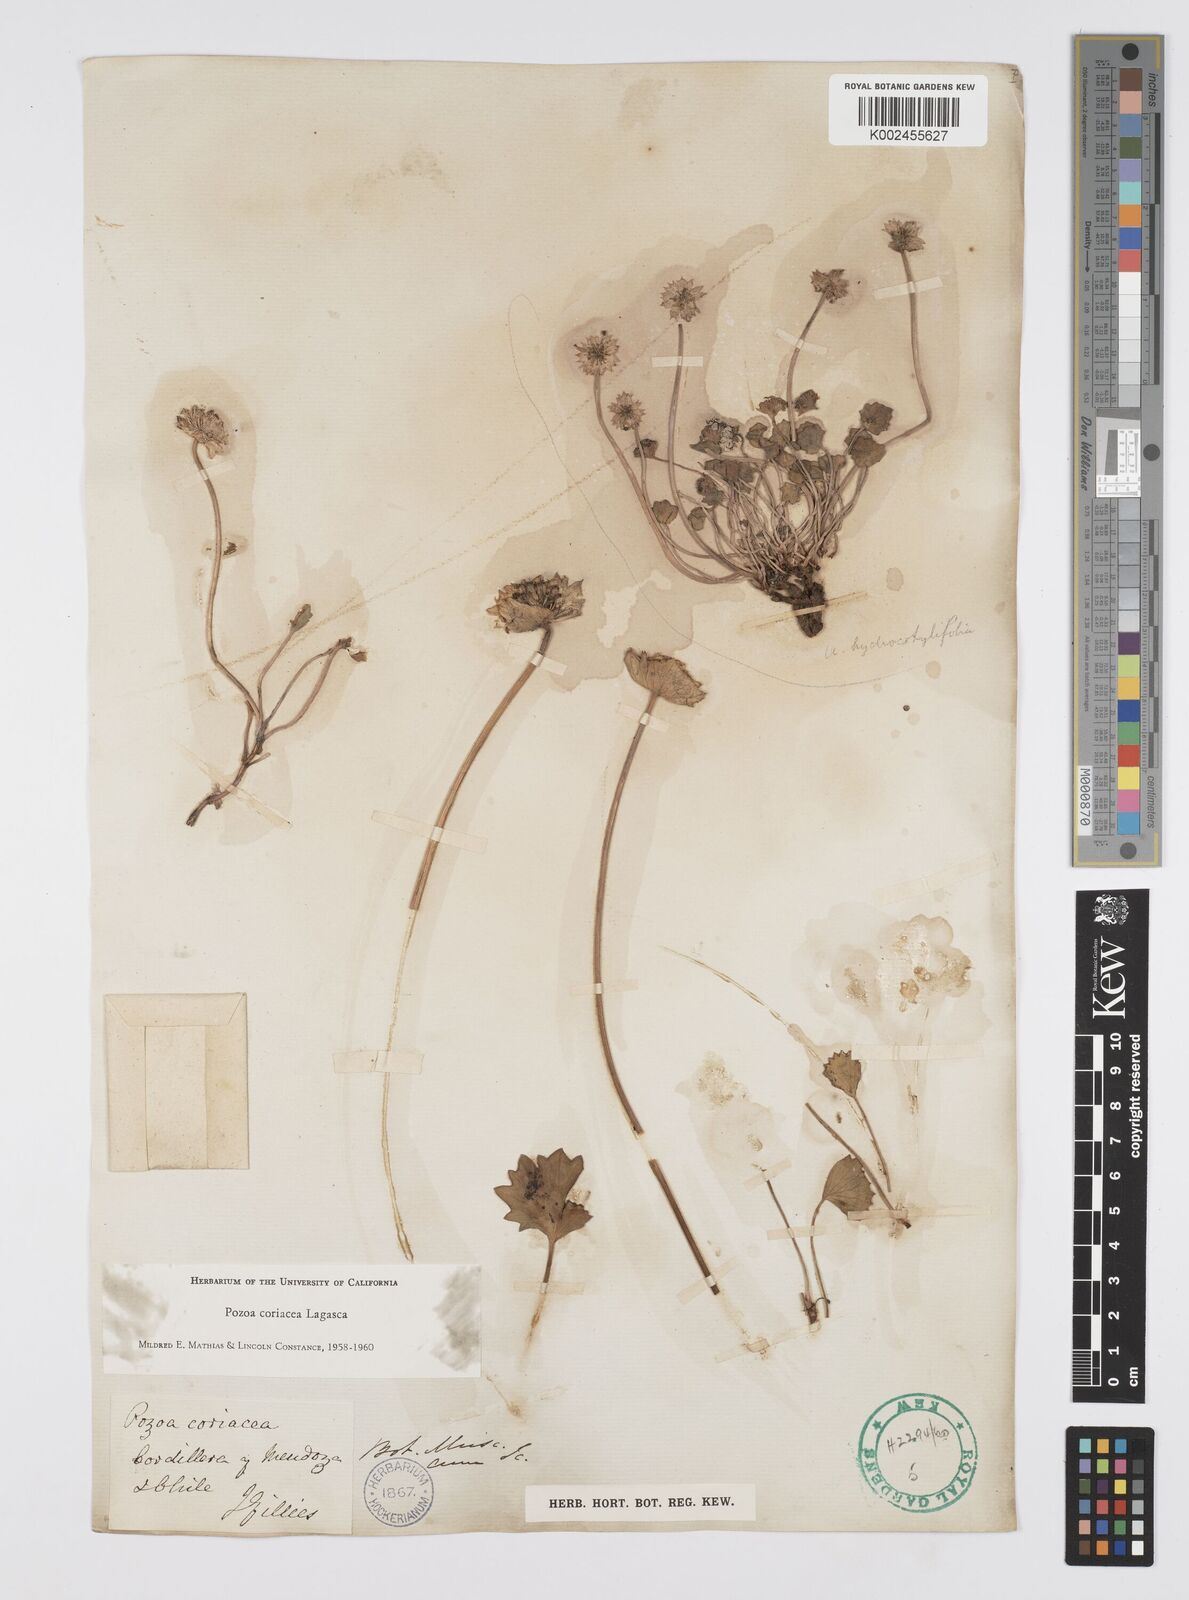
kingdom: Plantae
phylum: Tracheophyta
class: Magnoliopsida
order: Apiales
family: Apiaceae
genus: Pozoa
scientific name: Pozoa coriacea
